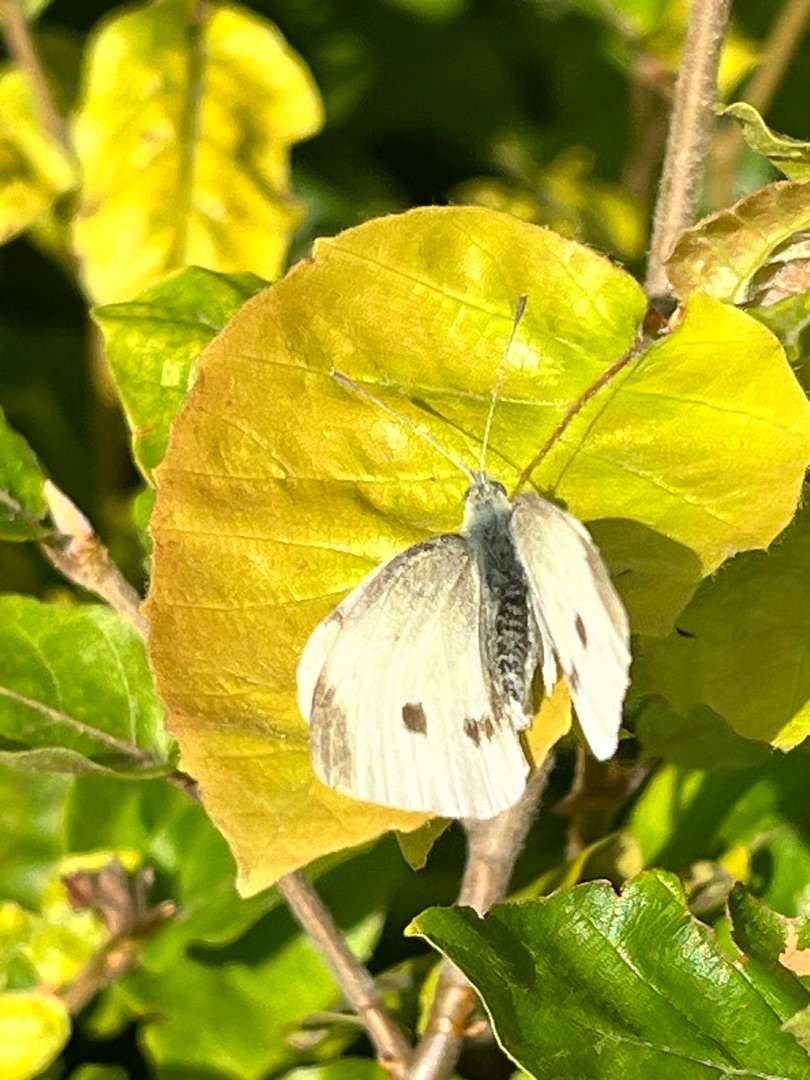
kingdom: Animalia
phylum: Arthropoda
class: Insecta
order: Lepidoptera
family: Pieridae
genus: Pieris
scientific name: Pieris rapae
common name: Lille kålsommerfugl
